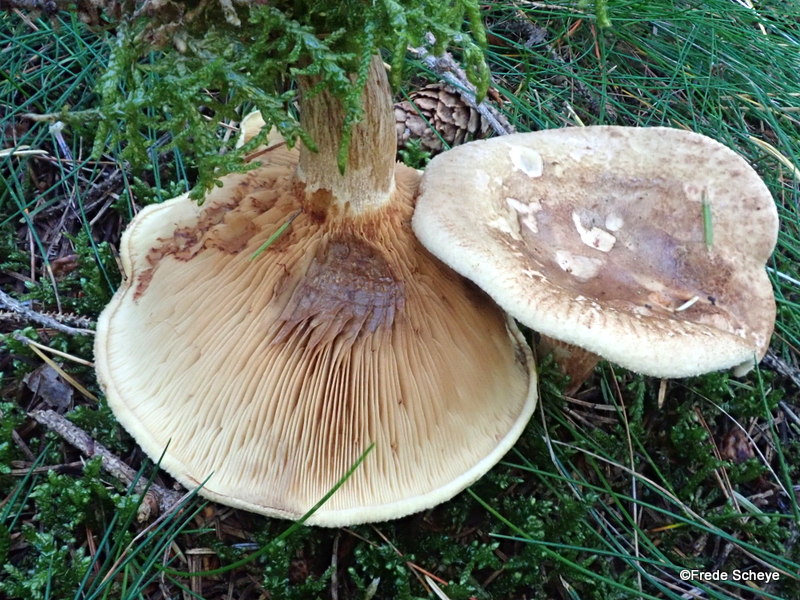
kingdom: Fungi
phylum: Basidiomycota
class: Agaricomycetes
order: Boletales
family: Paxillaceae
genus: Paxillus
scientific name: Paxillus involutus
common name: almindelig netbladhat
